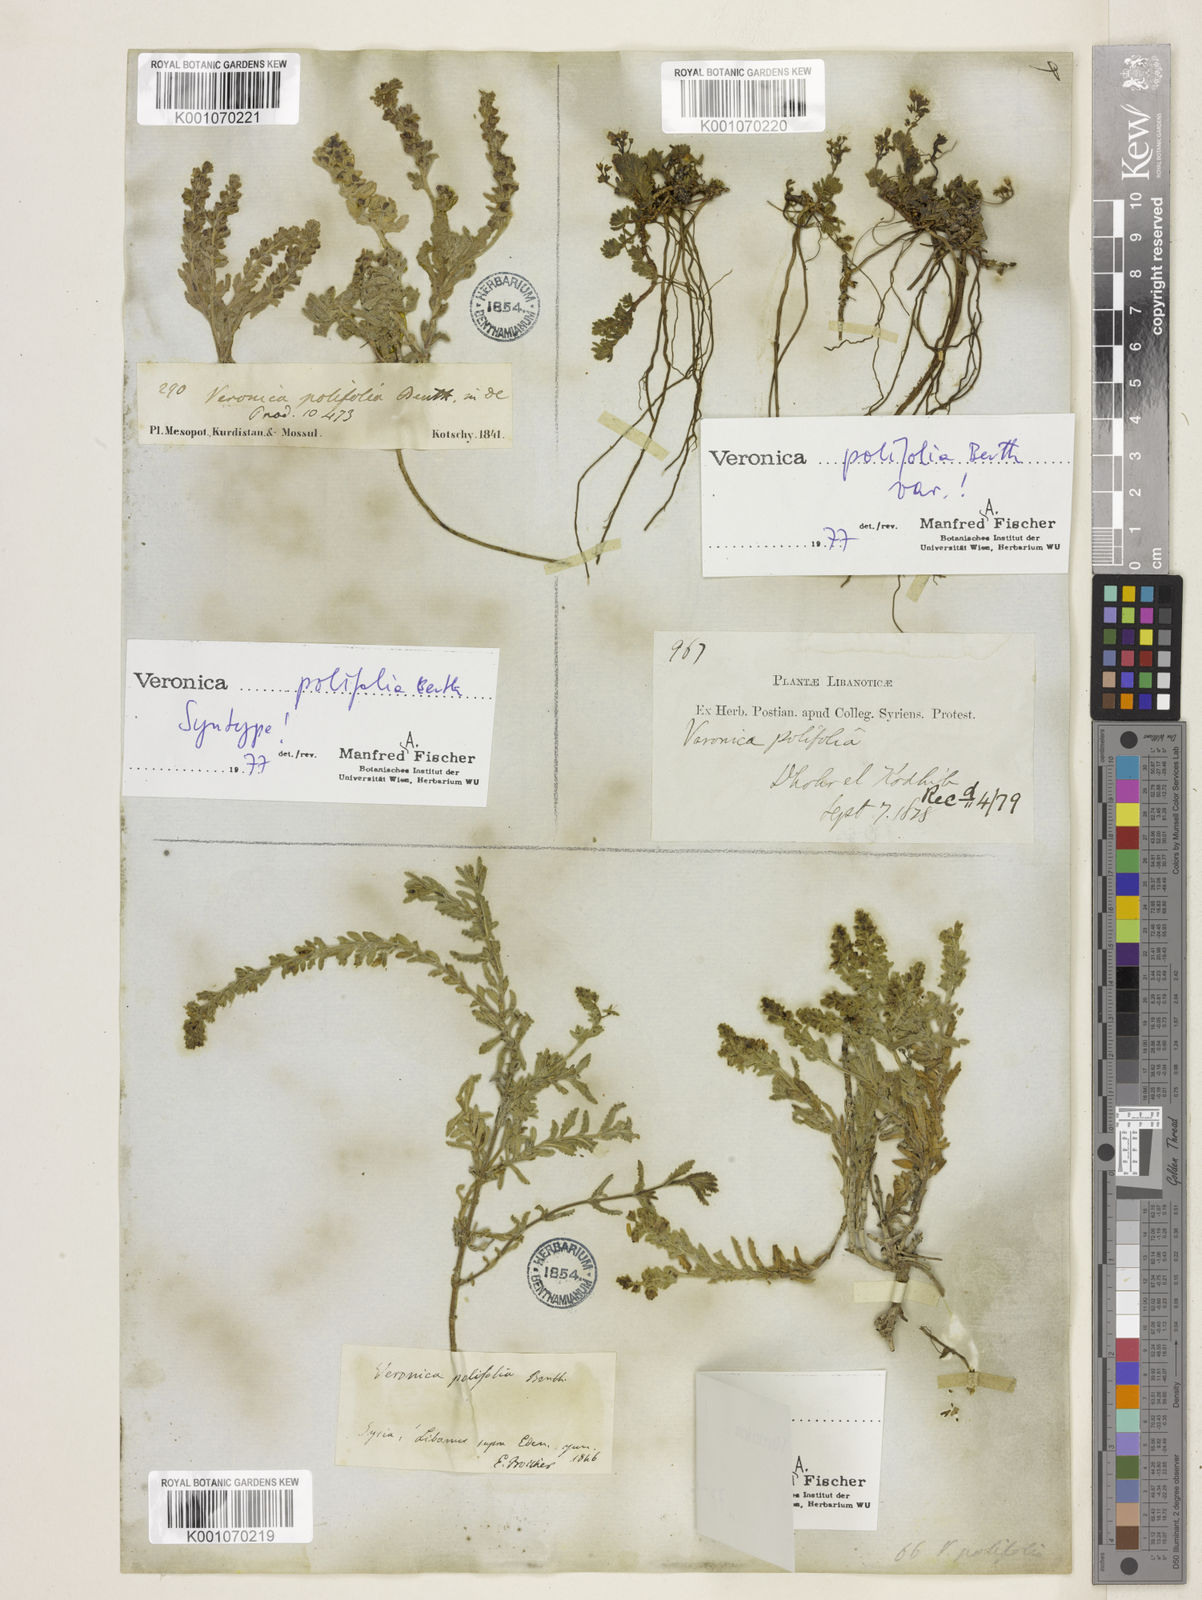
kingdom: Plantae
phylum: Tracheophyta
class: Magnoliopsida
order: Lamiales
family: Plantaginaceae
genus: Veronica
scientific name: Veronica polifolia
